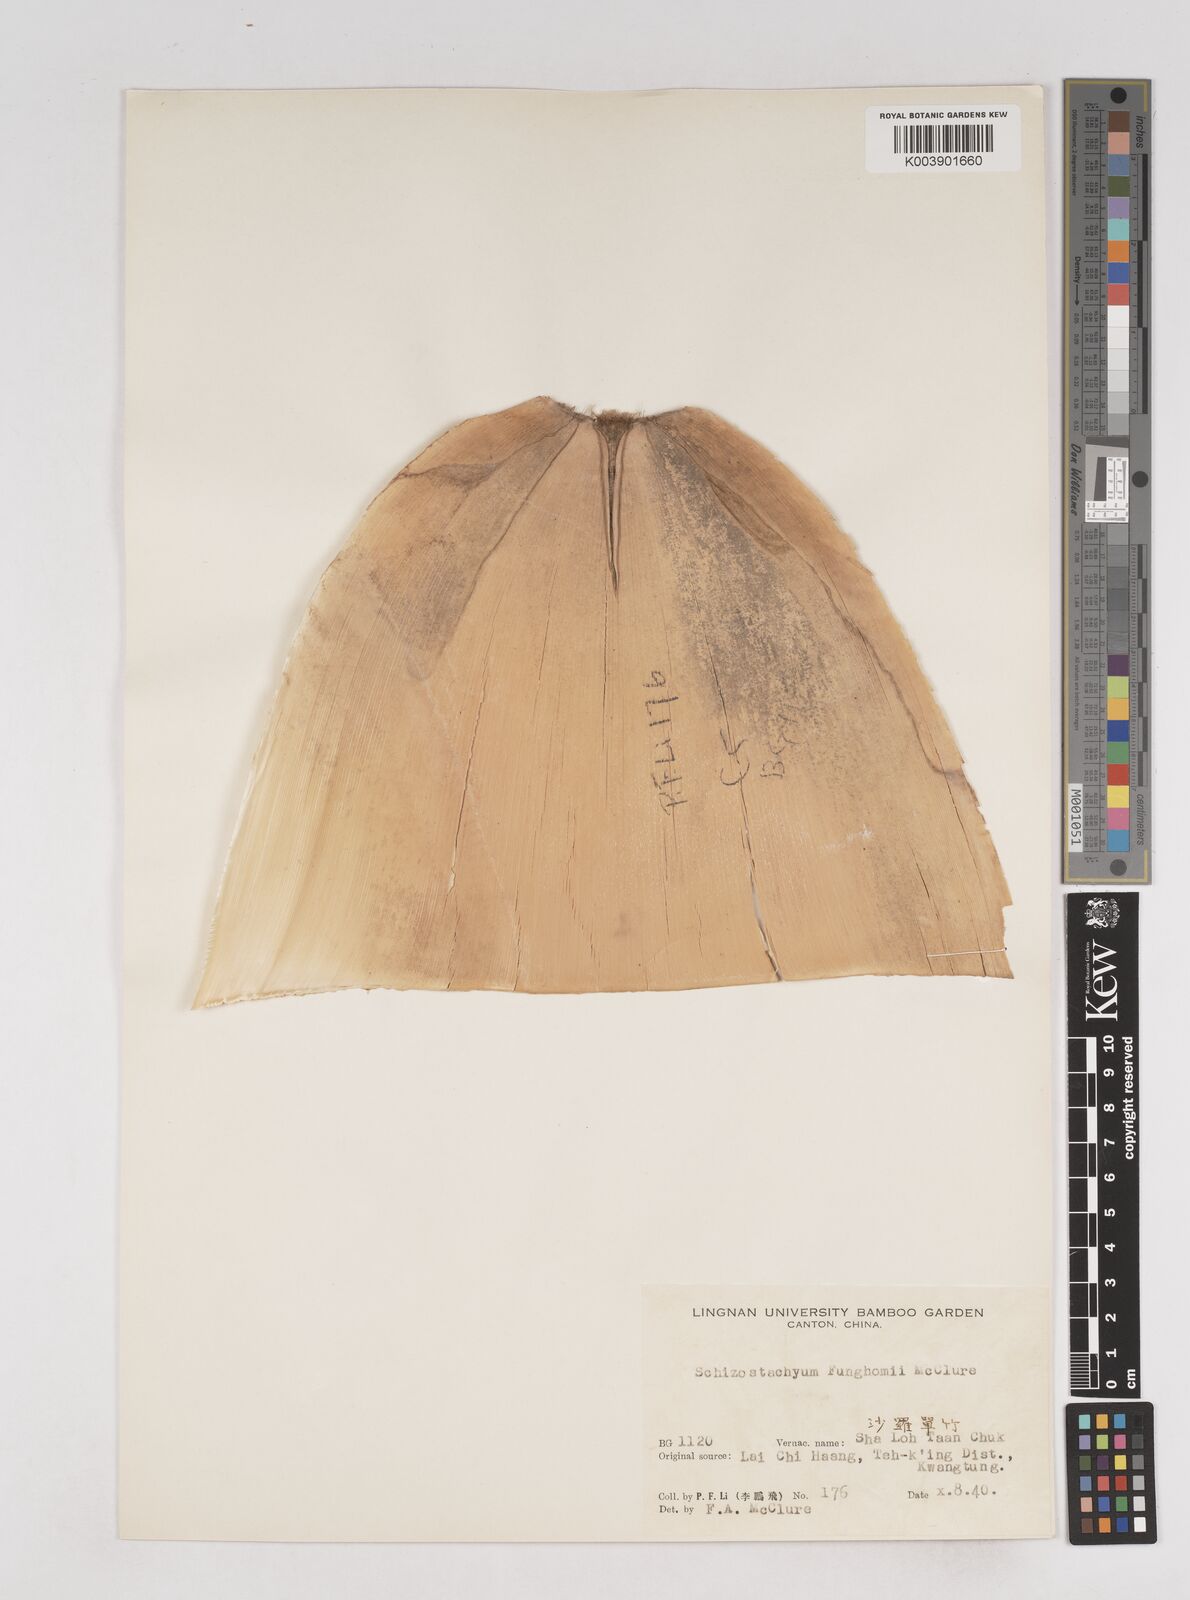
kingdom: Plantae
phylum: Tracheophyta
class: Liliopsida
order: Poales
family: Poaceae
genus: Schizostachyum
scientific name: Schizostachyum funghomii
